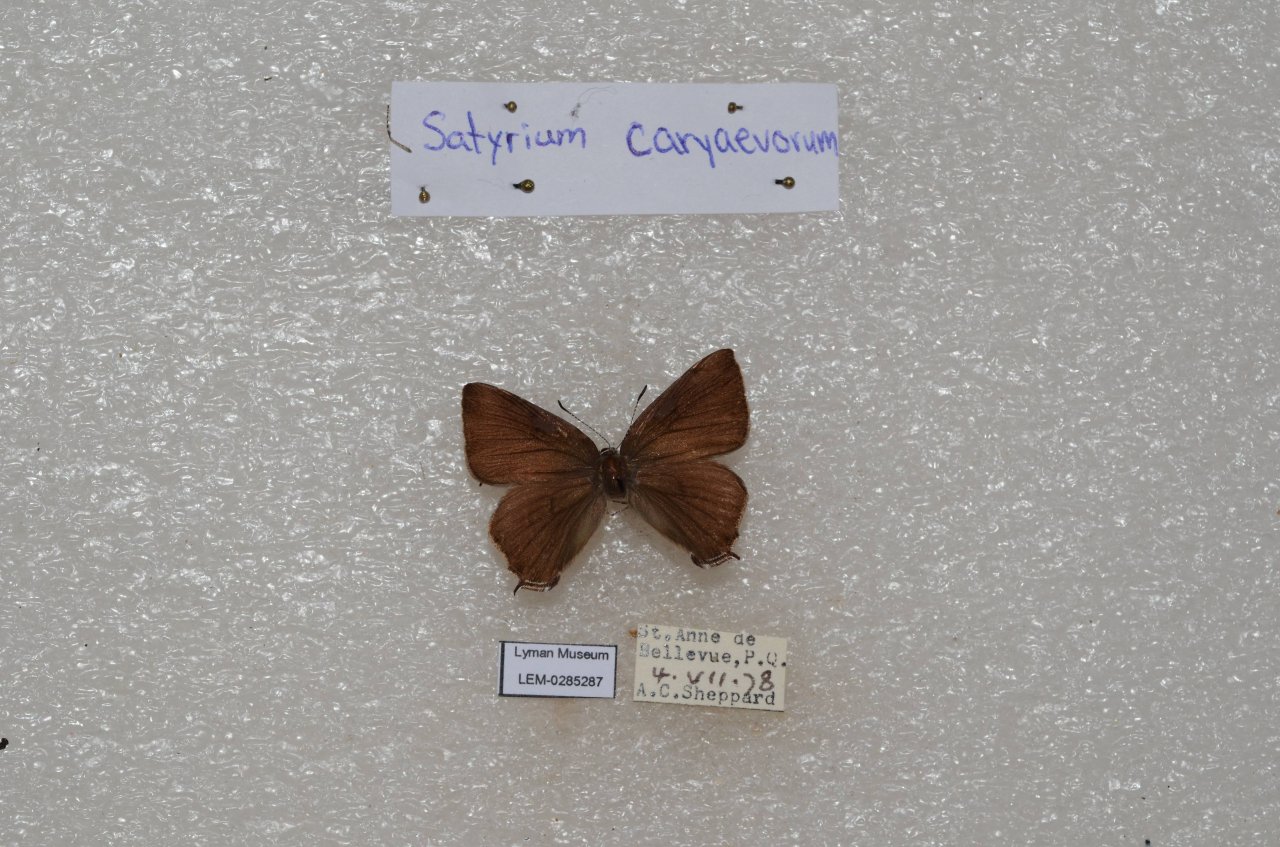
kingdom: Animalia
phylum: Arthropoda
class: Insecta
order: Lepidoptera
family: Lycaenidae
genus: Strymon
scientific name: Strymon caryaevorus
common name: Hickory Hairstreak
